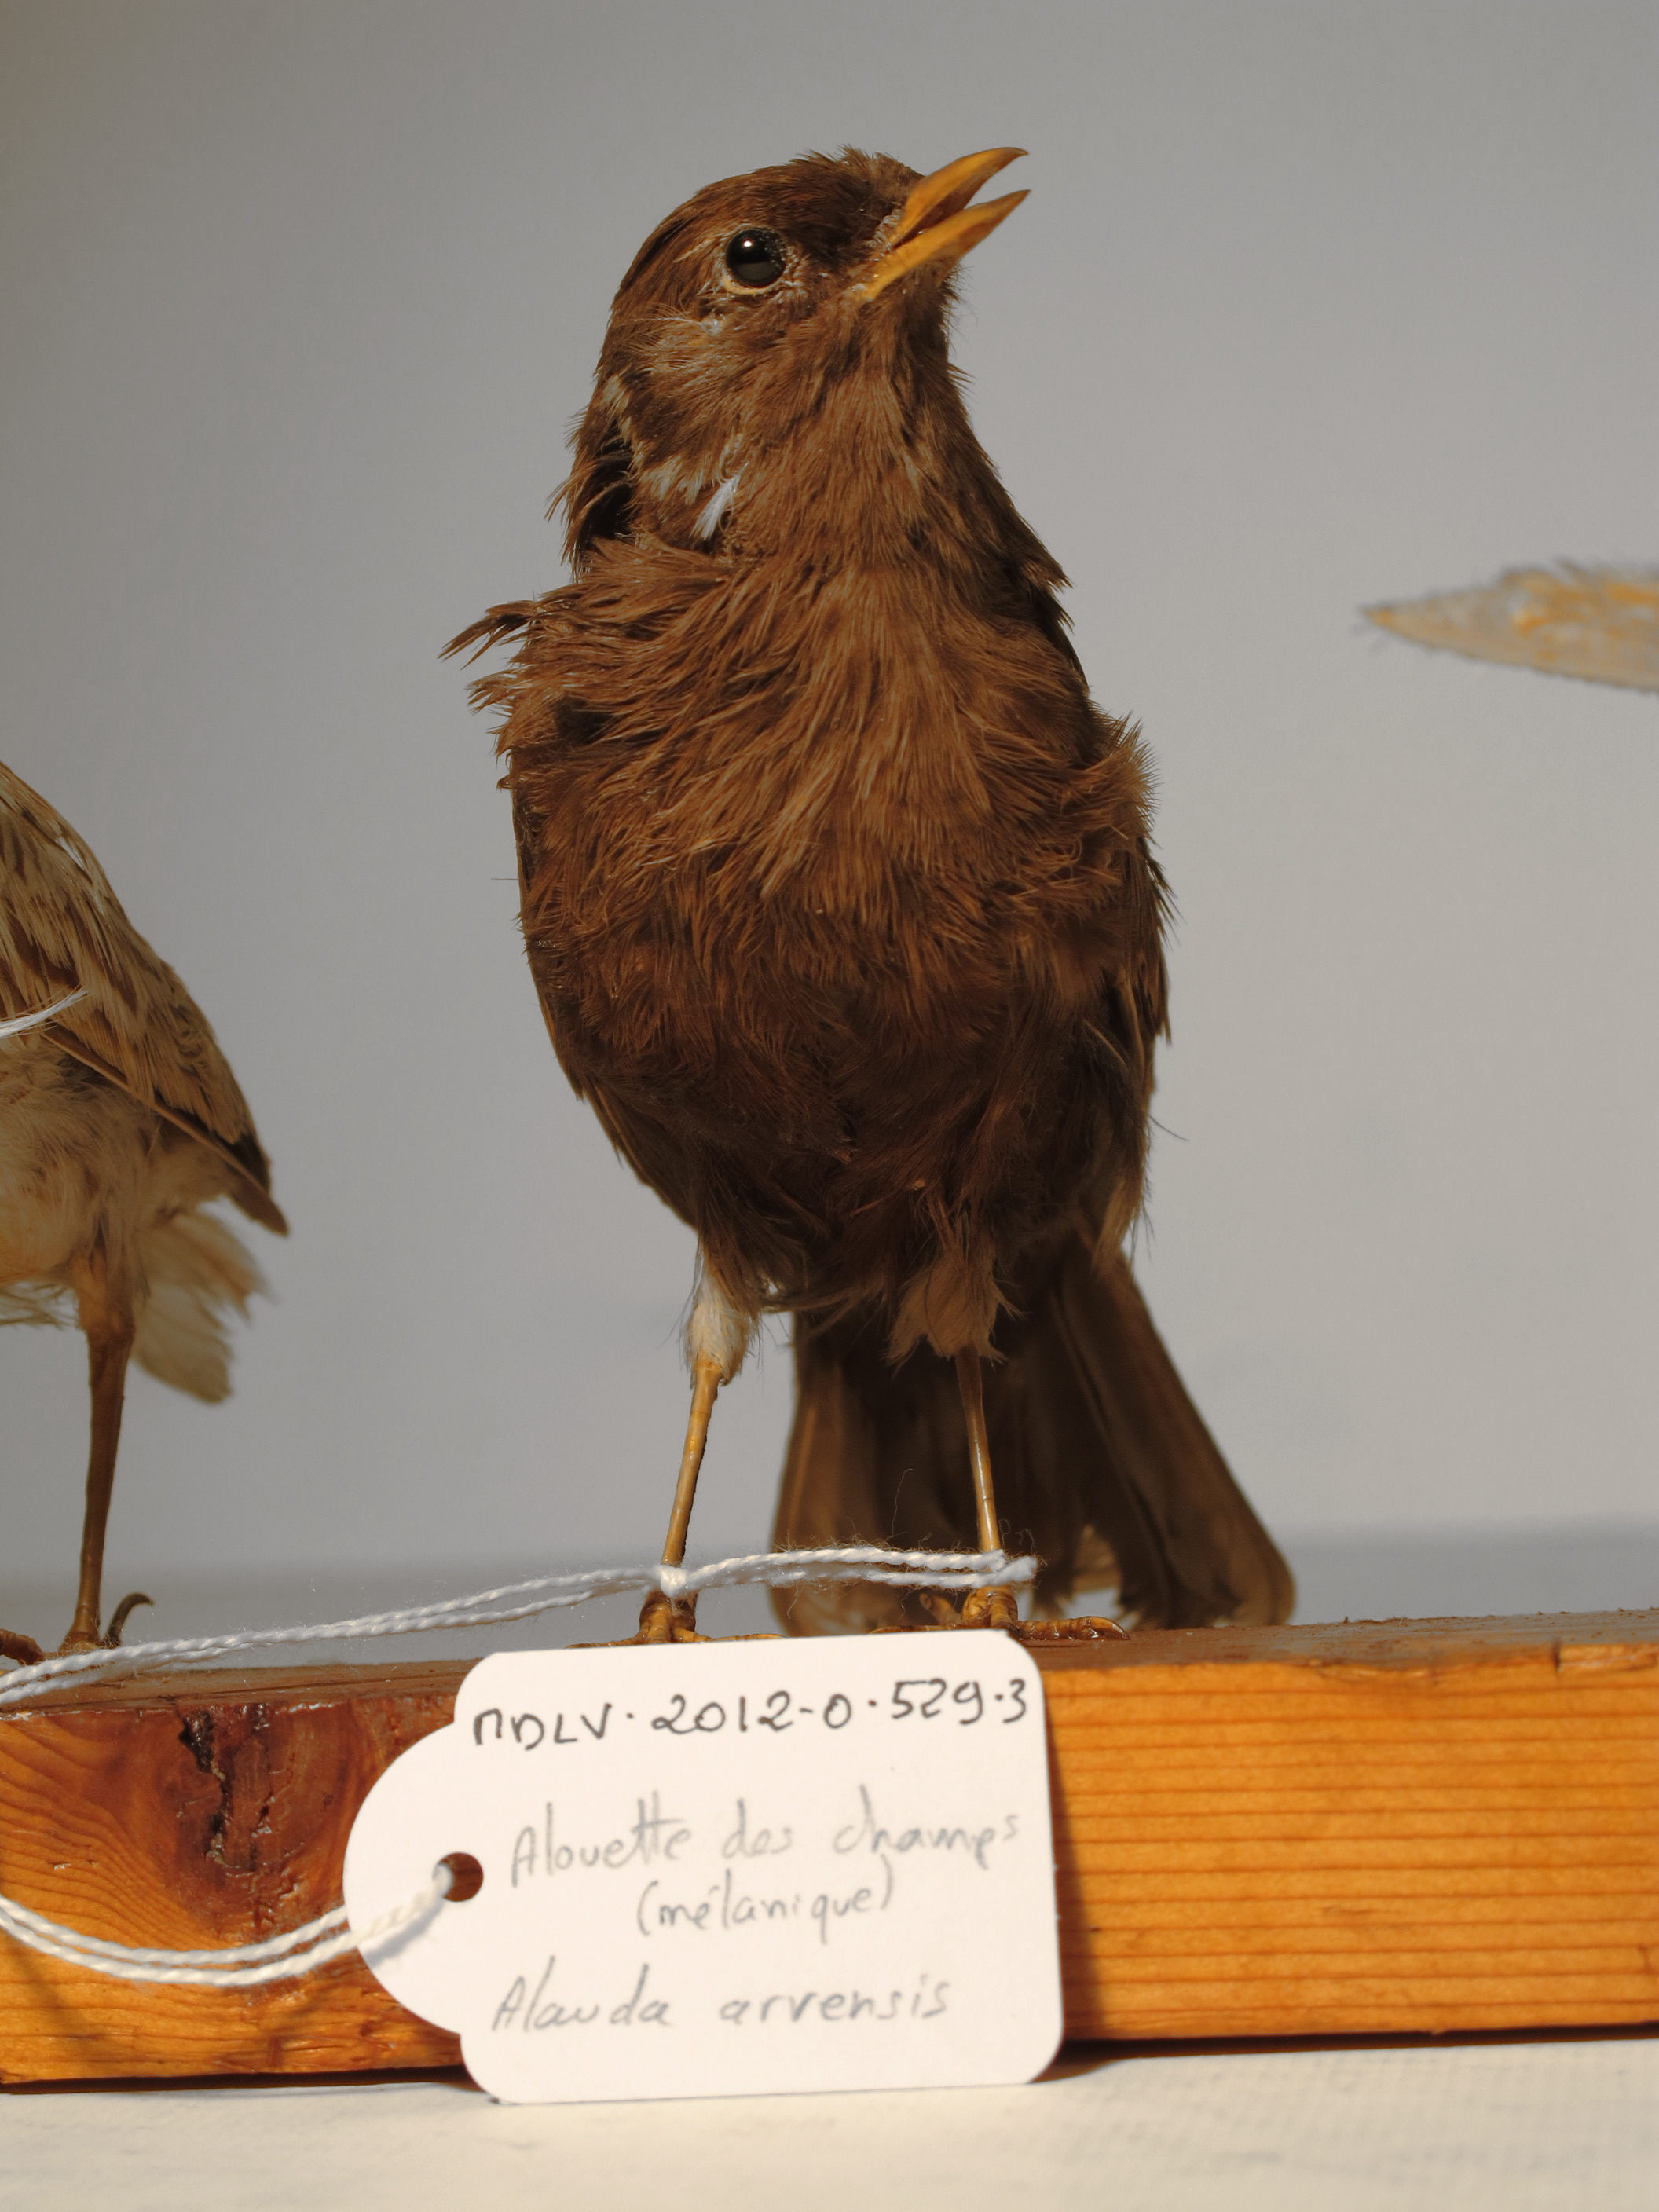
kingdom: Animalia
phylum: Chordata
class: Aves
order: Passeriformes
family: Alaudidae
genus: Alauda
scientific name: Alauda arvensis
